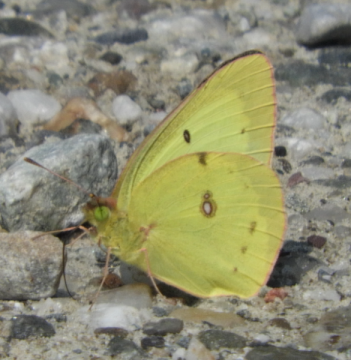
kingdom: Animalia
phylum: Arthropoda
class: Insecta
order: Lepidoptera
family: Pieridae
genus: Colias
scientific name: Colias philodice
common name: Clouded Sulphur
